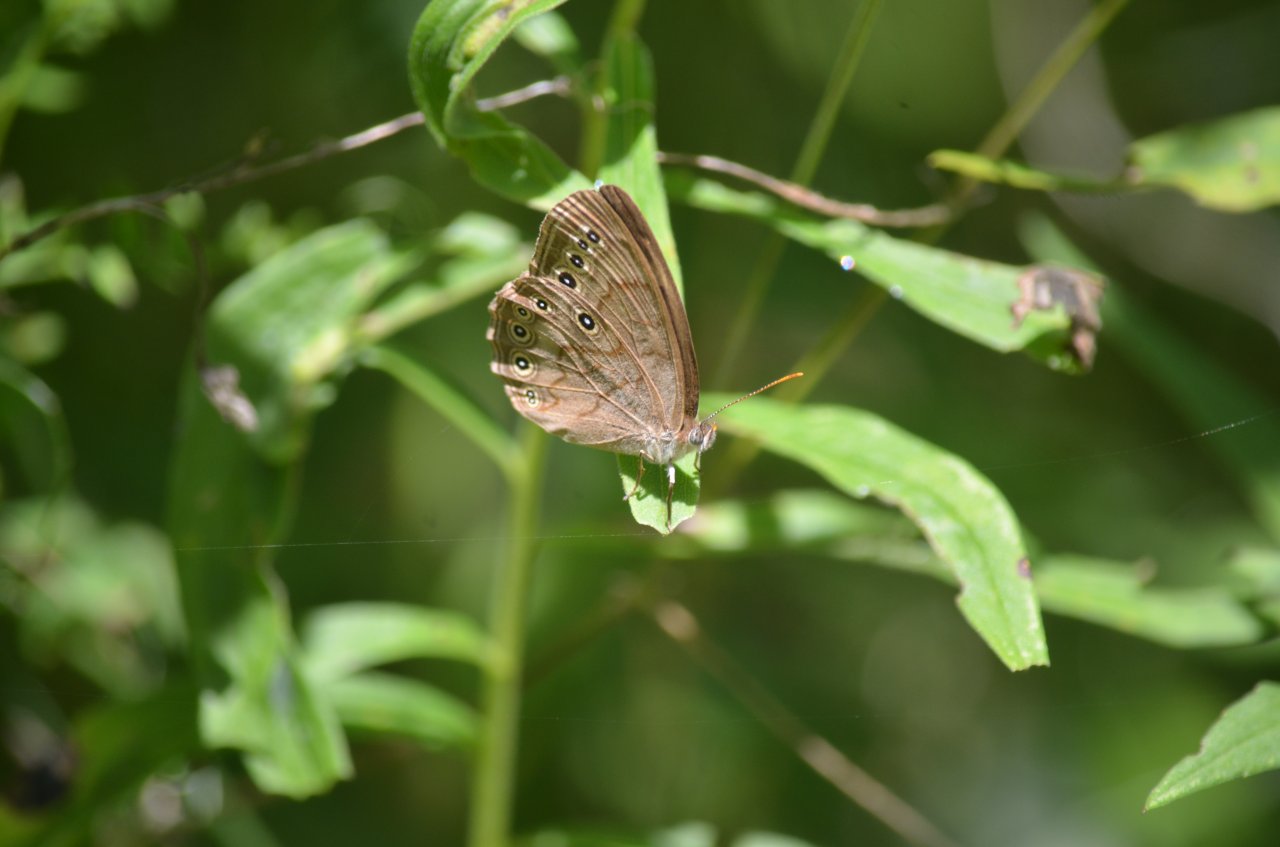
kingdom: Animalia
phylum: Arthropoda
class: Insecta
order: Lepidoptera
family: Nymphalidae
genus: Lethe
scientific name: Lethe eurydice
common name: Eyed Brown
